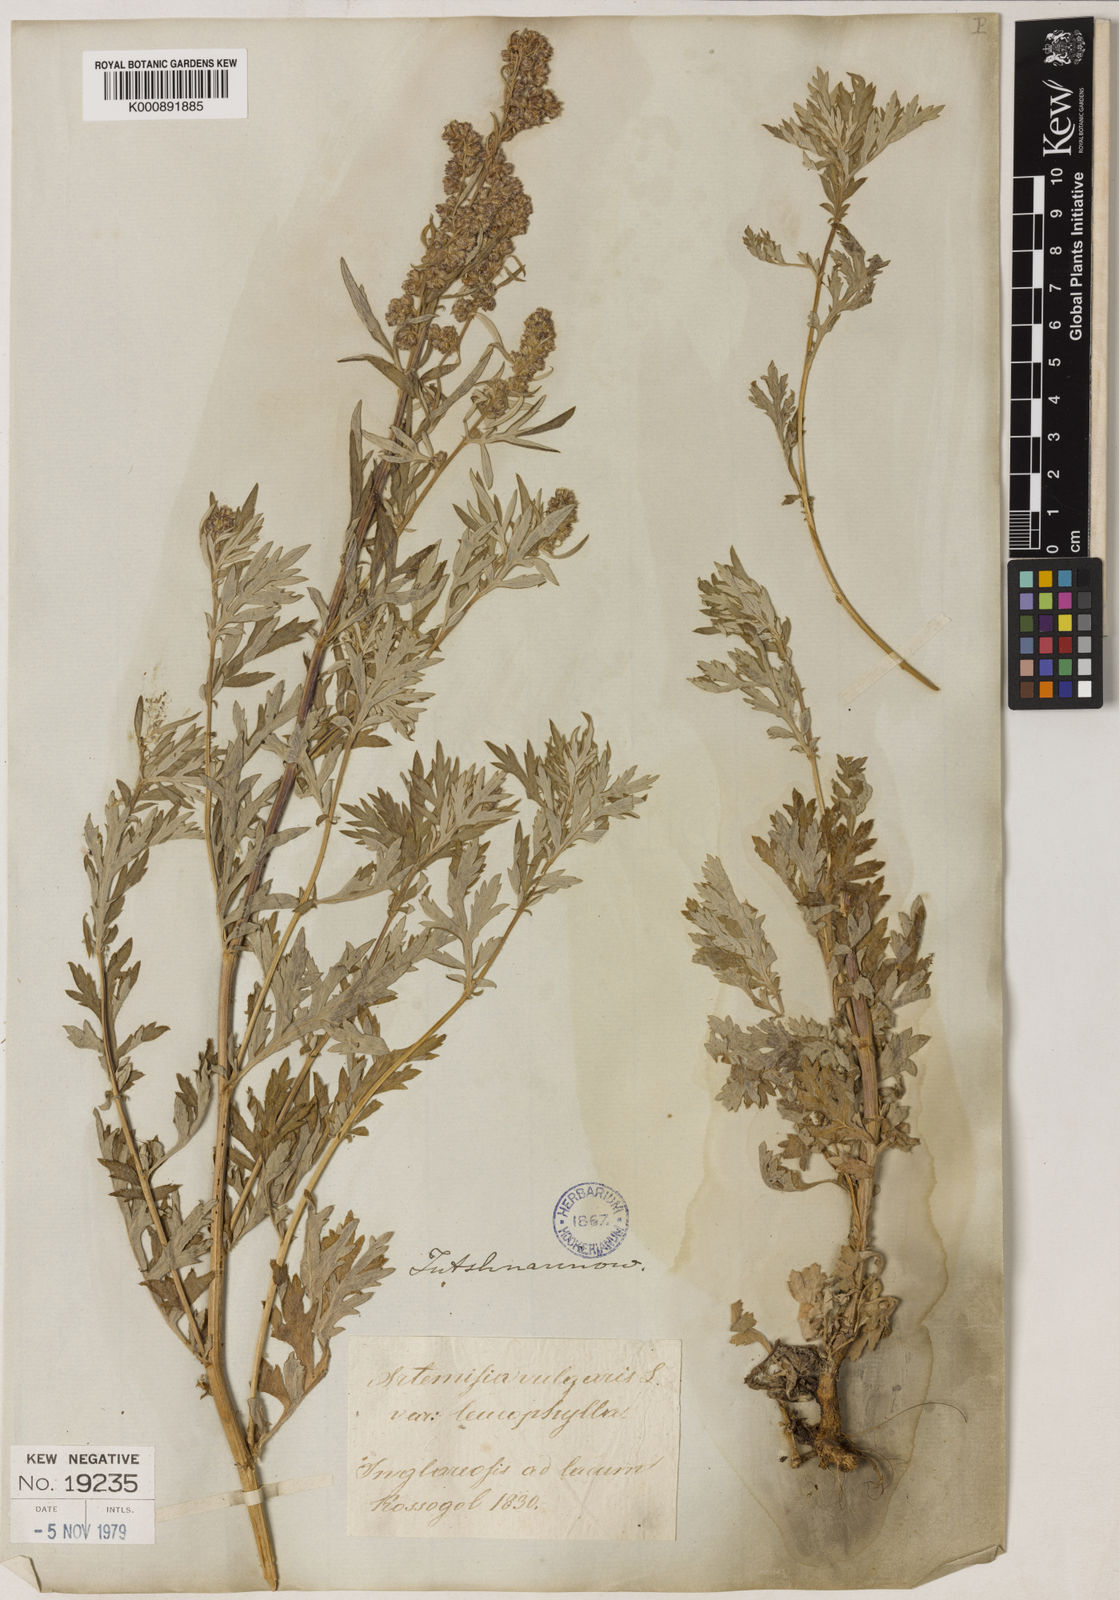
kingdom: Plantae
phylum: Tracheophyta
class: Magnoliopsida
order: Asterales
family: Asteraceae
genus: Artemisia
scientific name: Artemisia leucophylla
